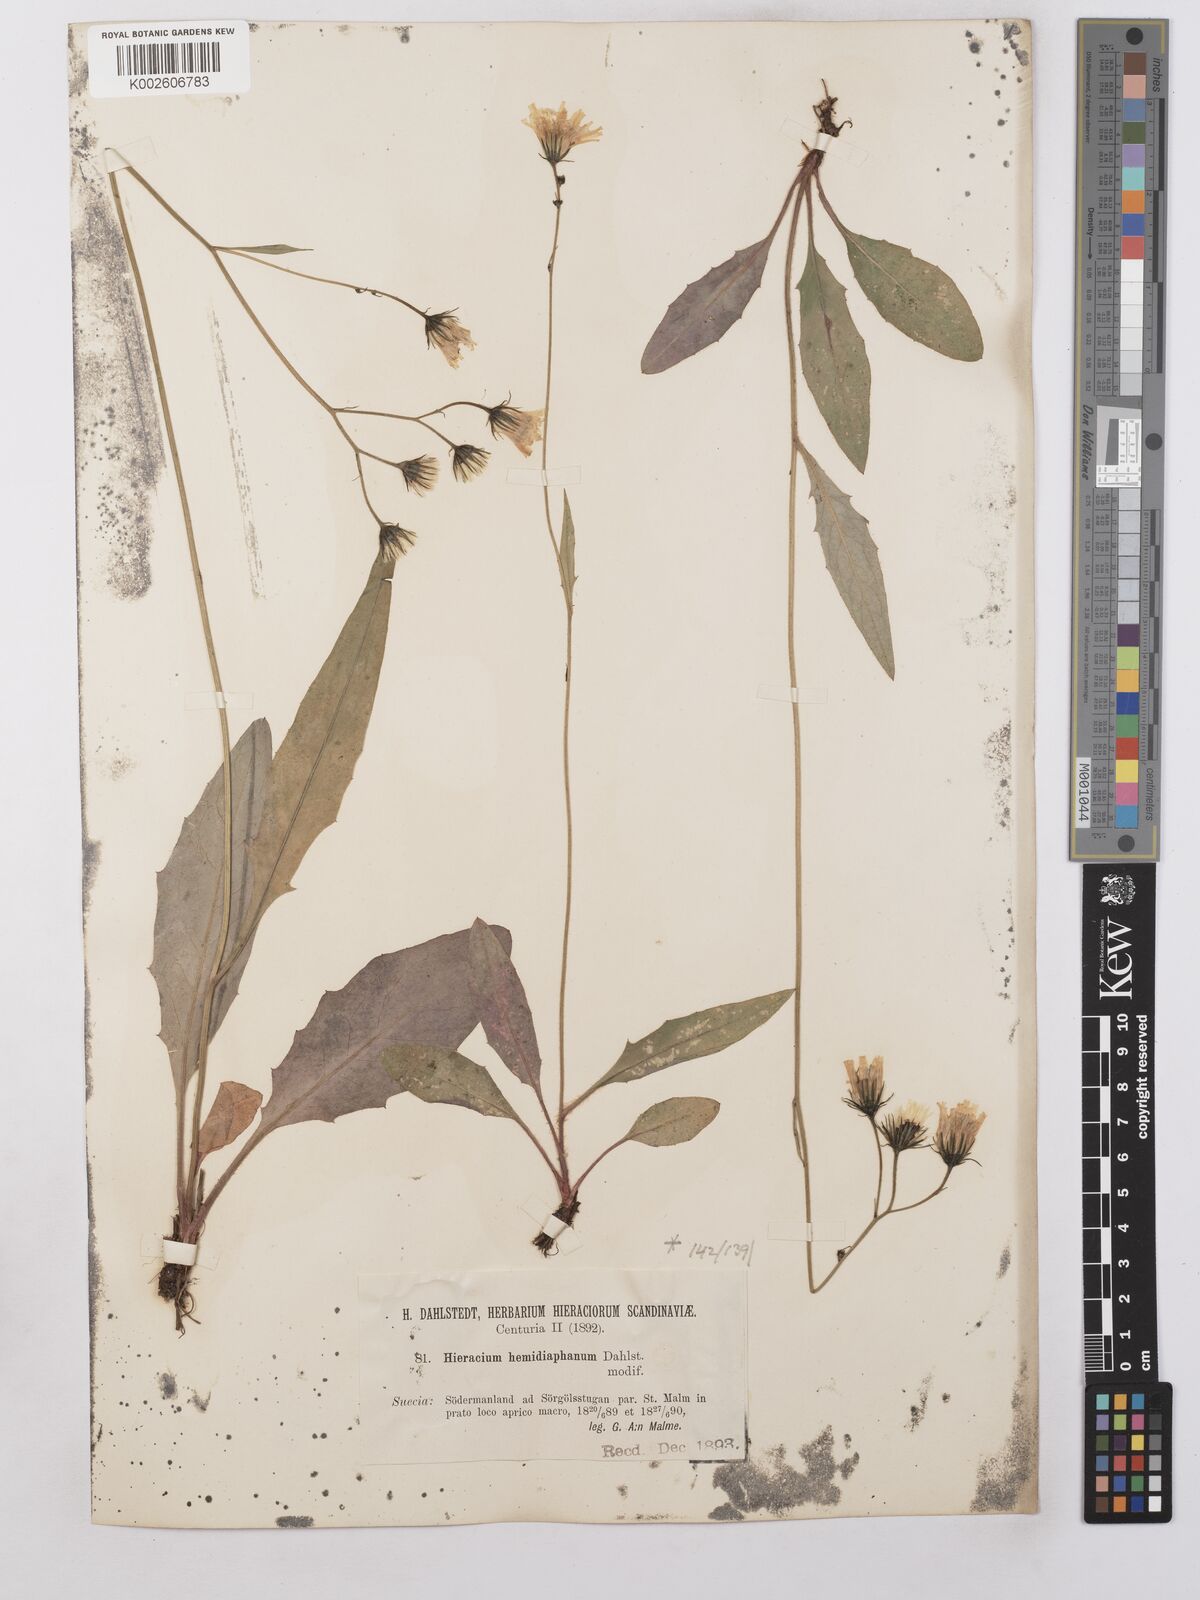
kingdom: Plantae
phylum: Tracheophyta
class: Magnoliopsida
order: Asterales
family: Asteraceae
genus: Hieracium
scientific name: Hieracium lachenalii
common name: Common hawkweed
